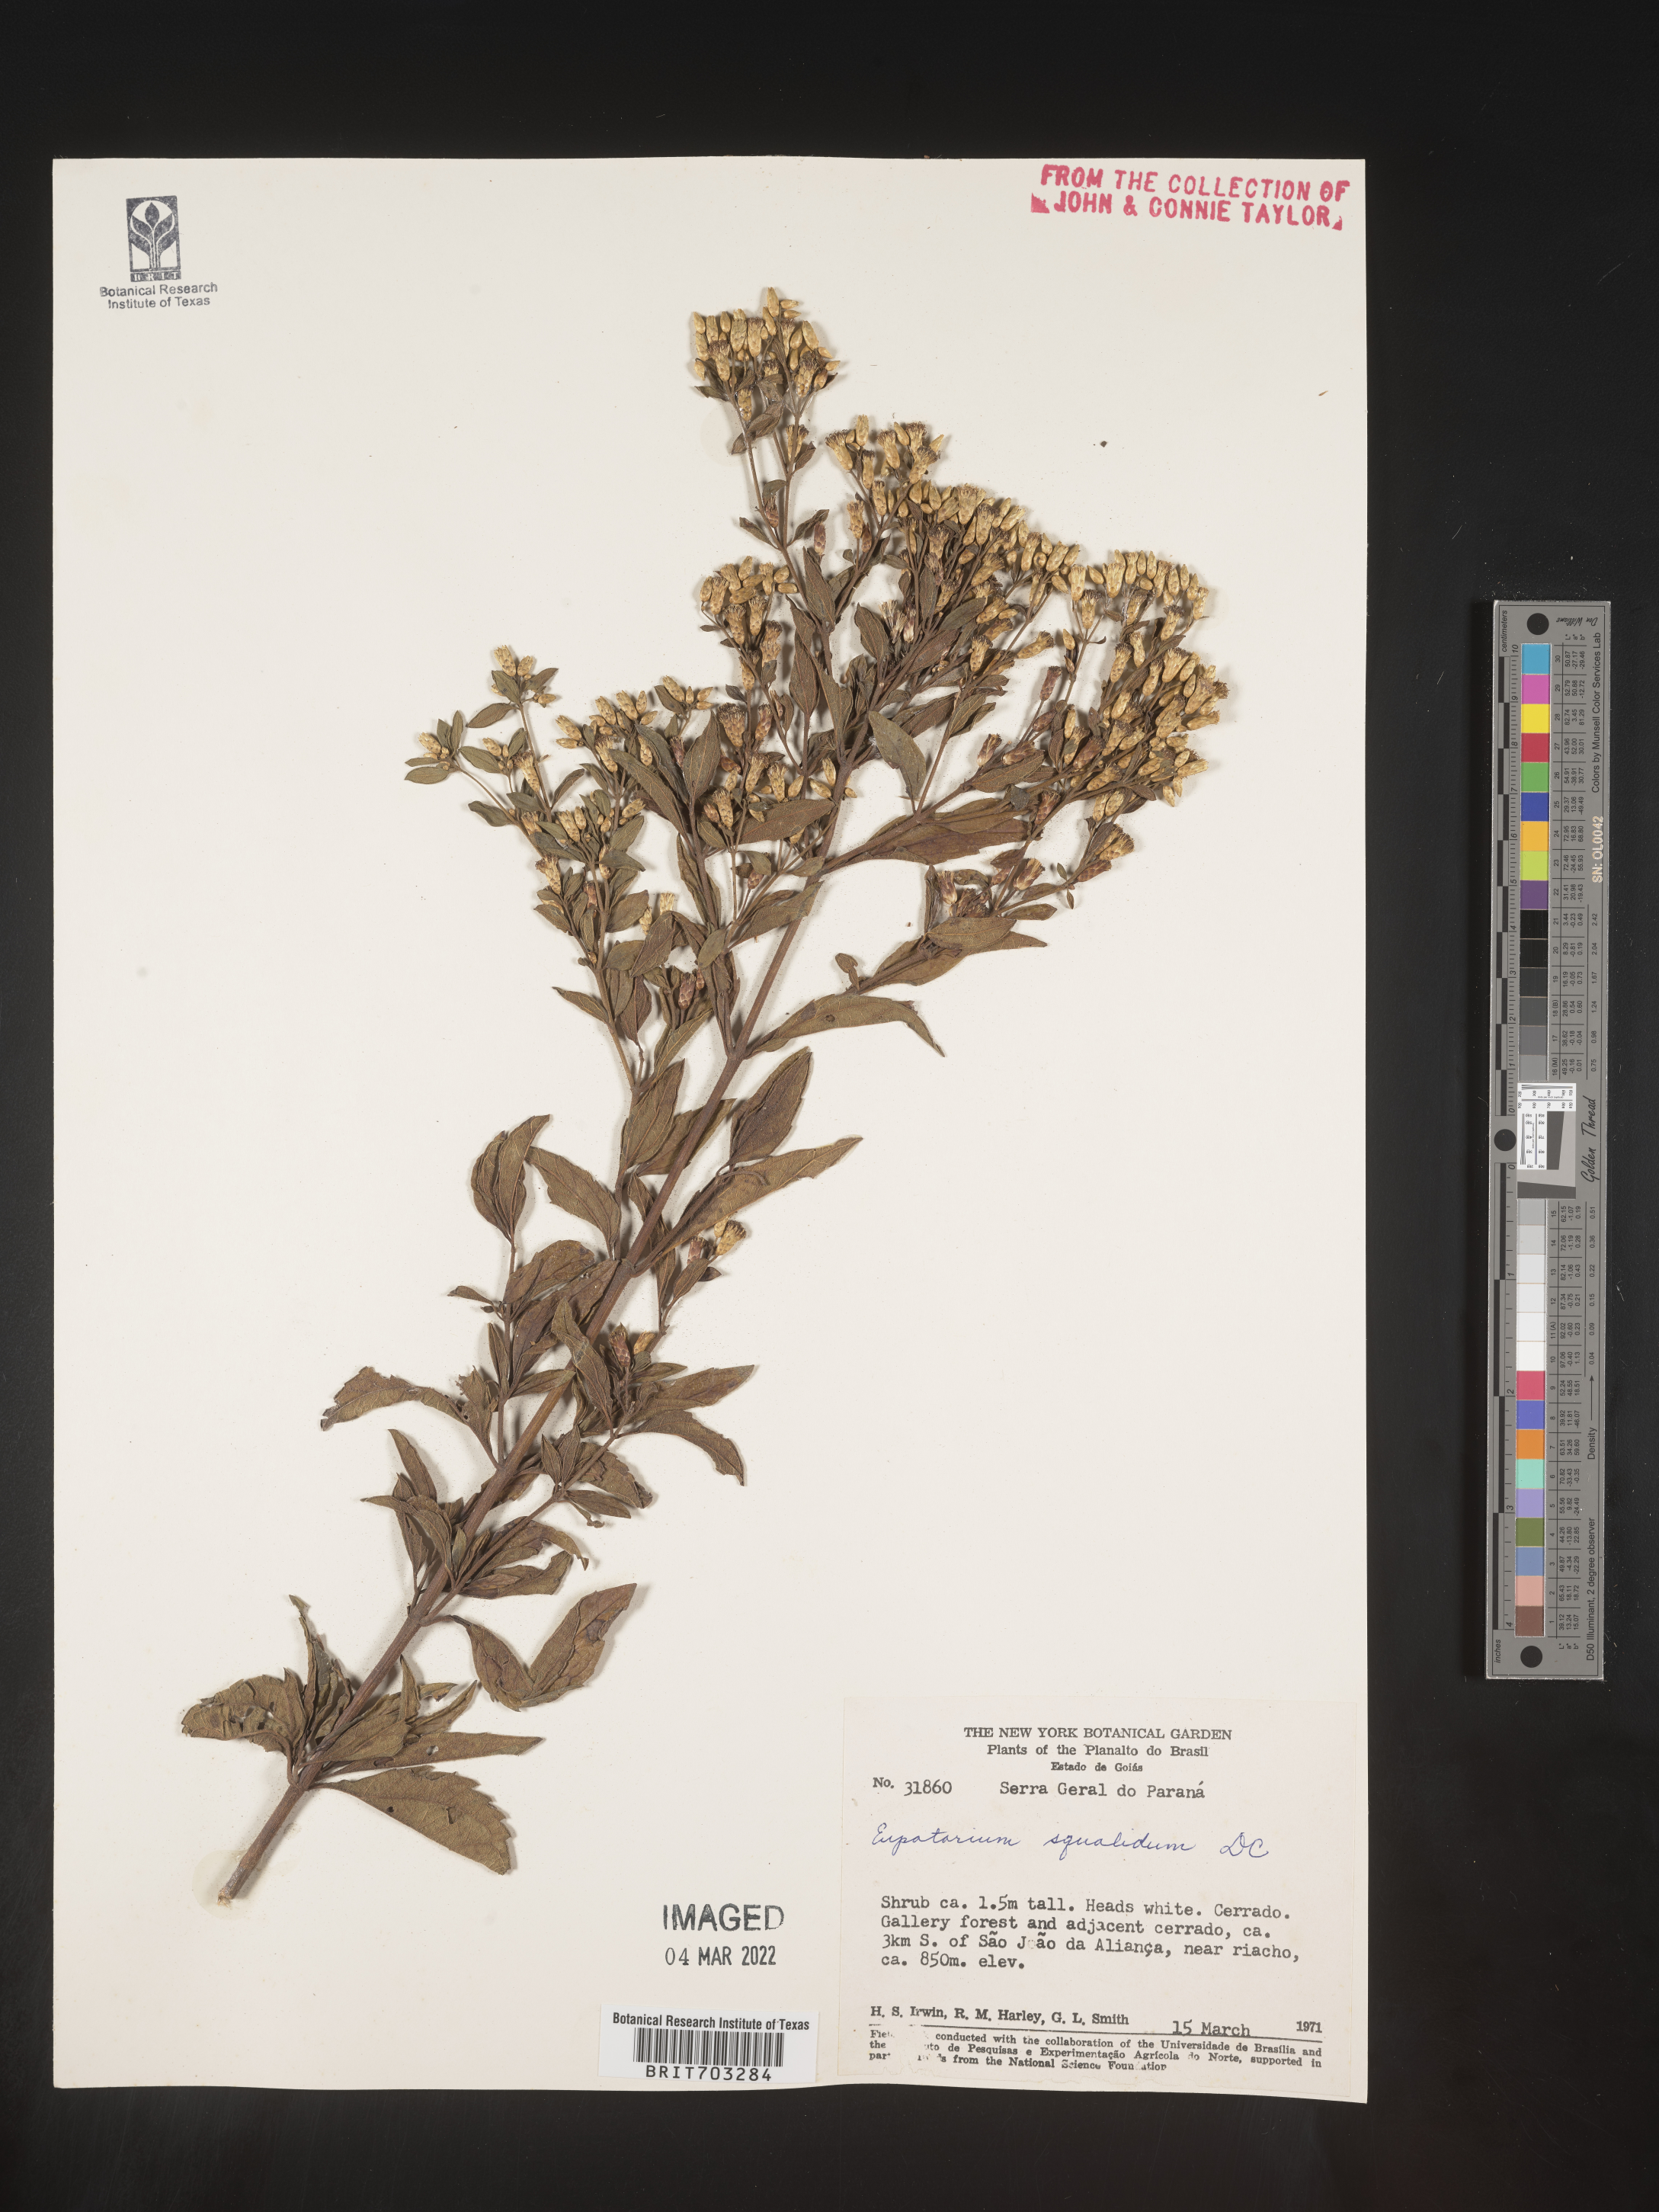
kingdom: Plantae
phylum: Tracheophyta
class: Magnoliopsida
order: Asterales
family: Asteraceae
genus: Eupatorium
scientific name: Eupatorium
